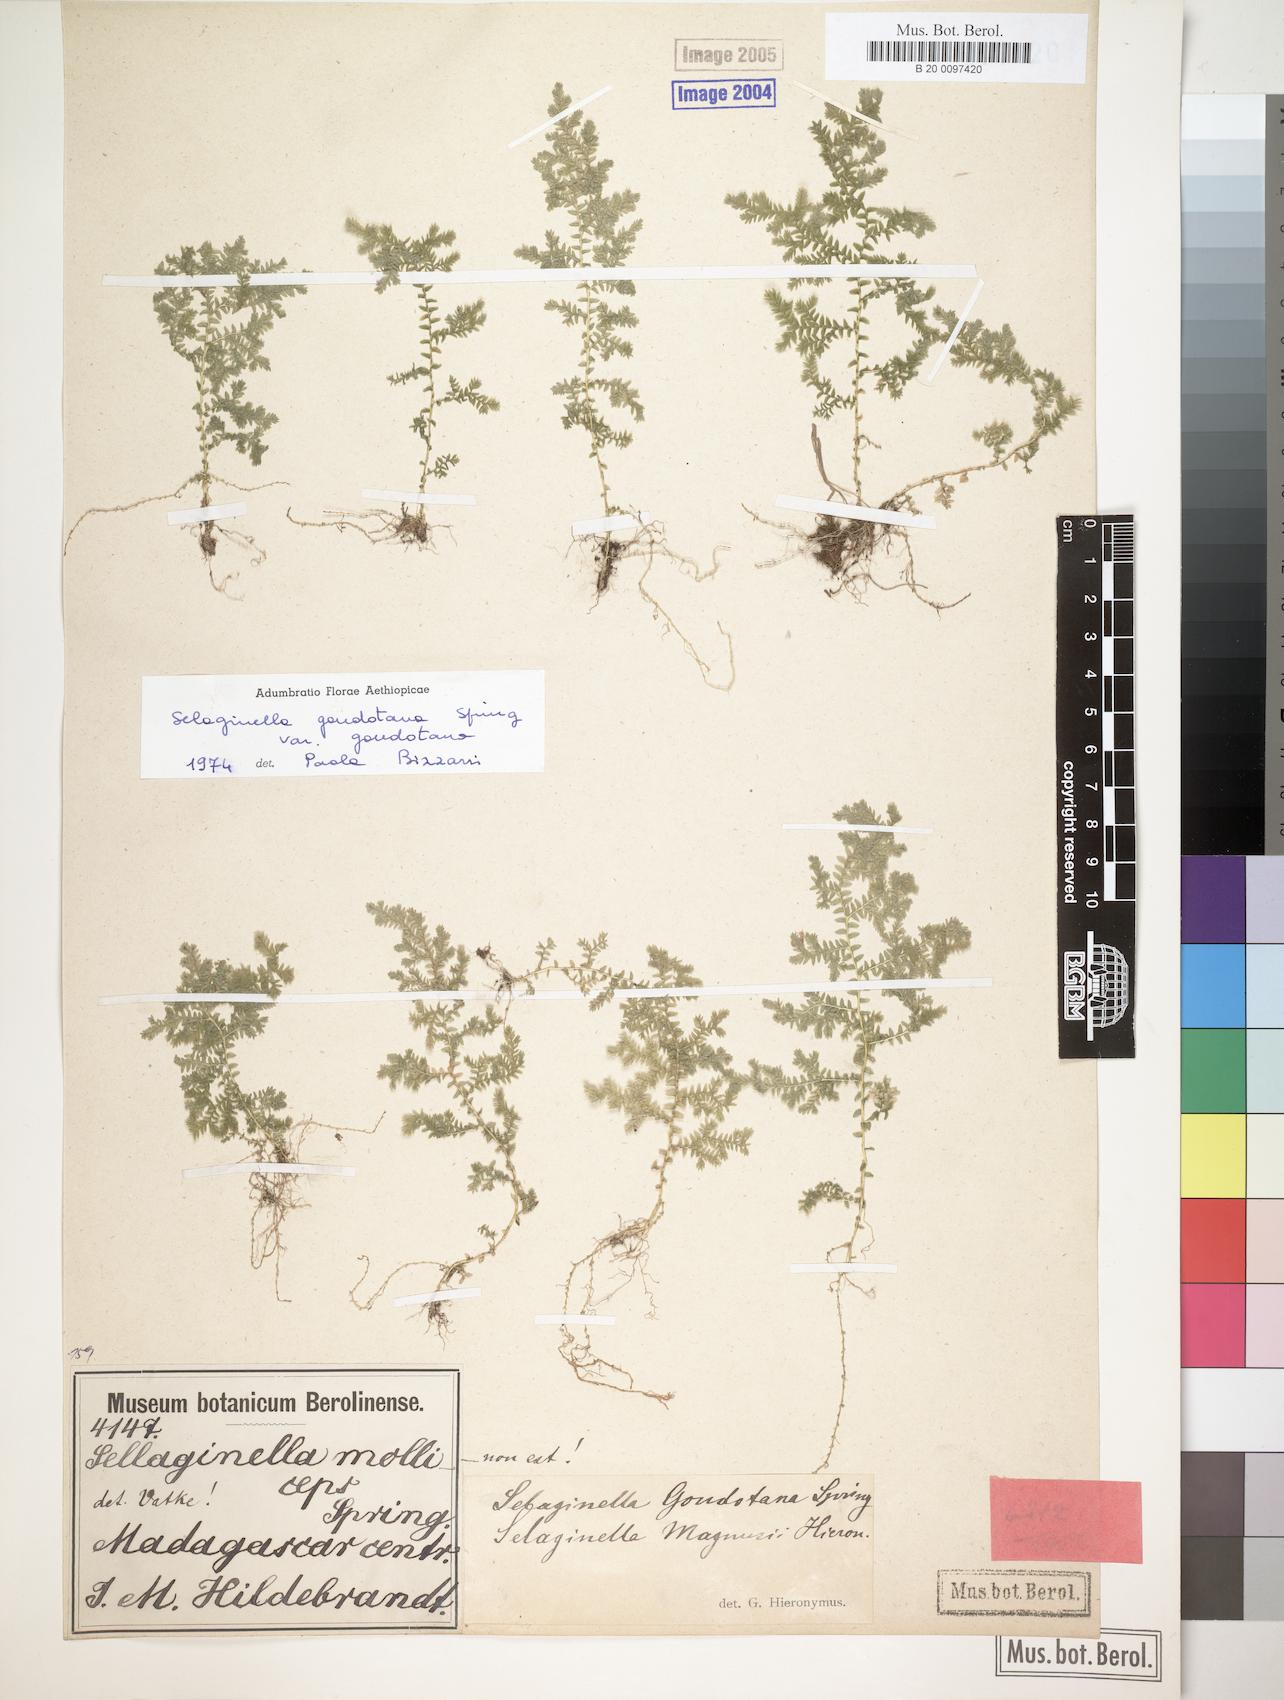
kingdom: Plantae
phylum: Tracheophyta
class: Lycopodiopsida
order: Selaginellales
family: Selaginellaceae
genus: Selaginella
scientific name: Selaginella goudotiana
